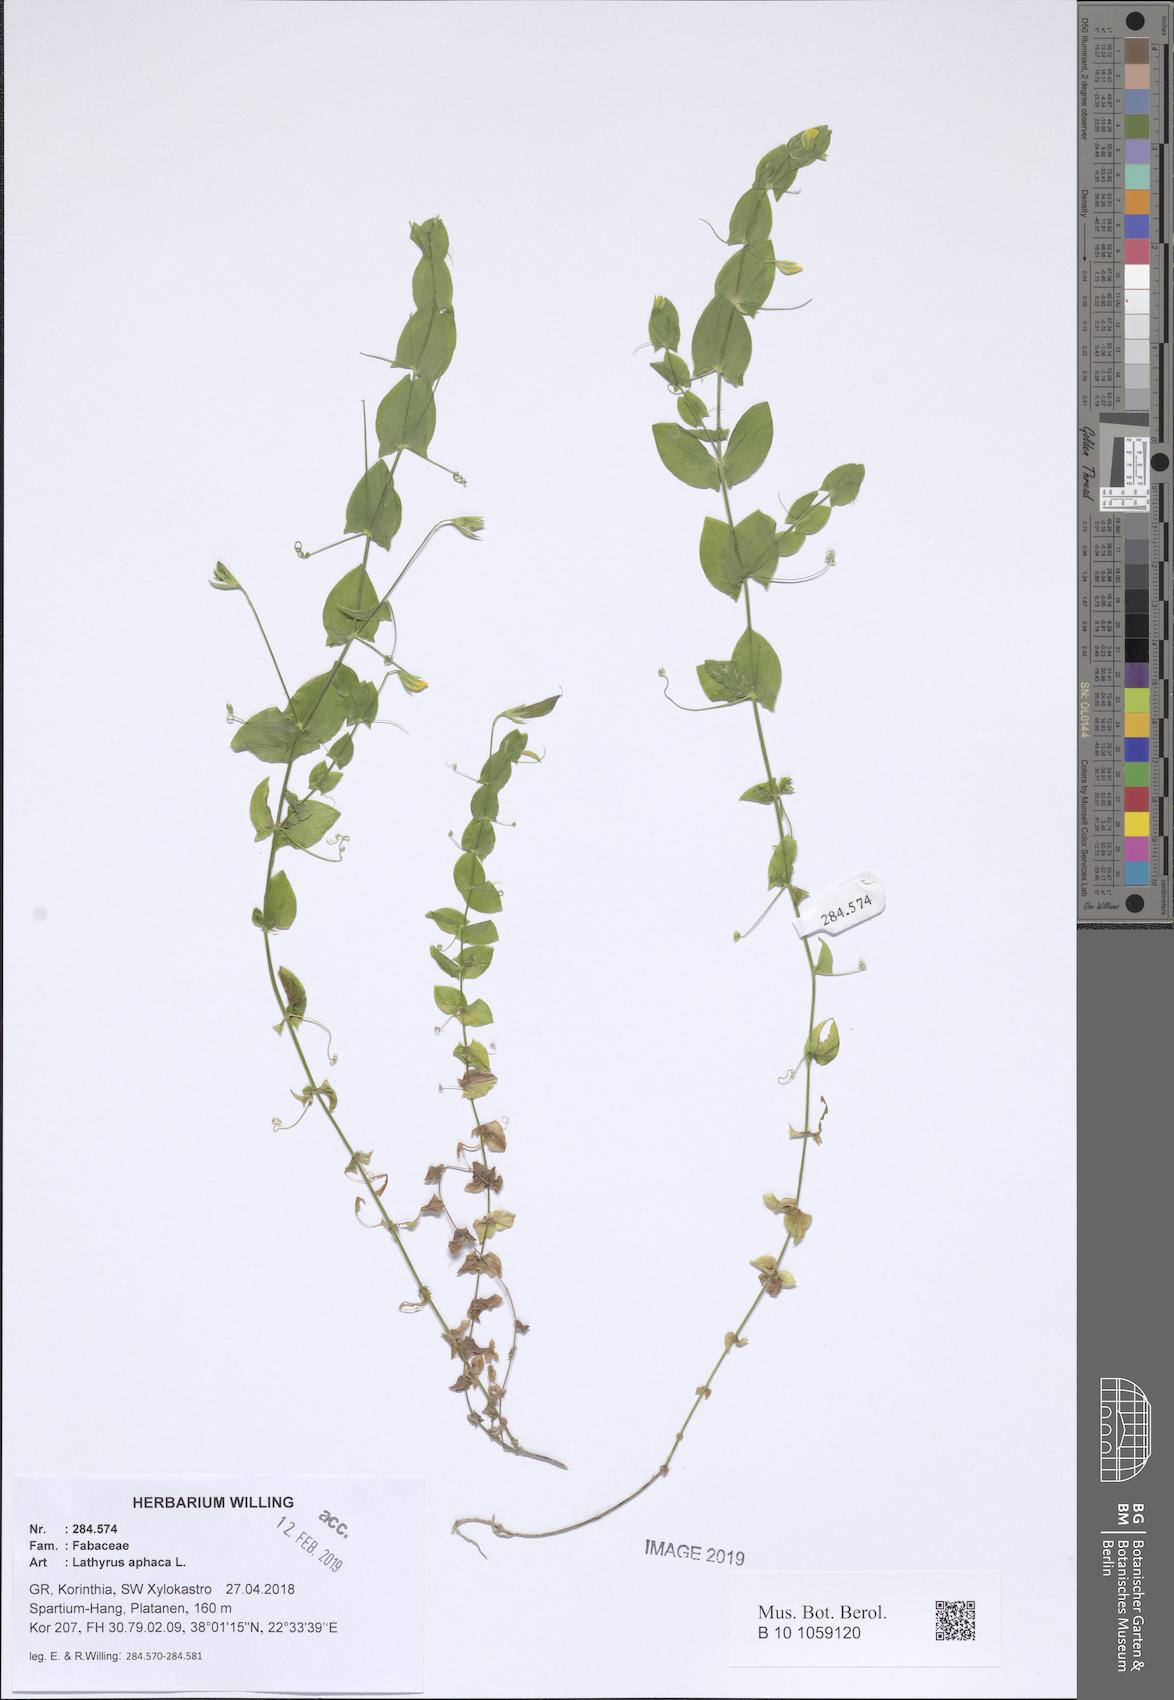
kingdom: Plantae
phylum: Tracheophyta
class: Magnoliopsida
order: Fabales
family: Fabaceae
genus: Lathyrus
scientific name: Lathyrus aphaca
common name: Yellow vetchling
